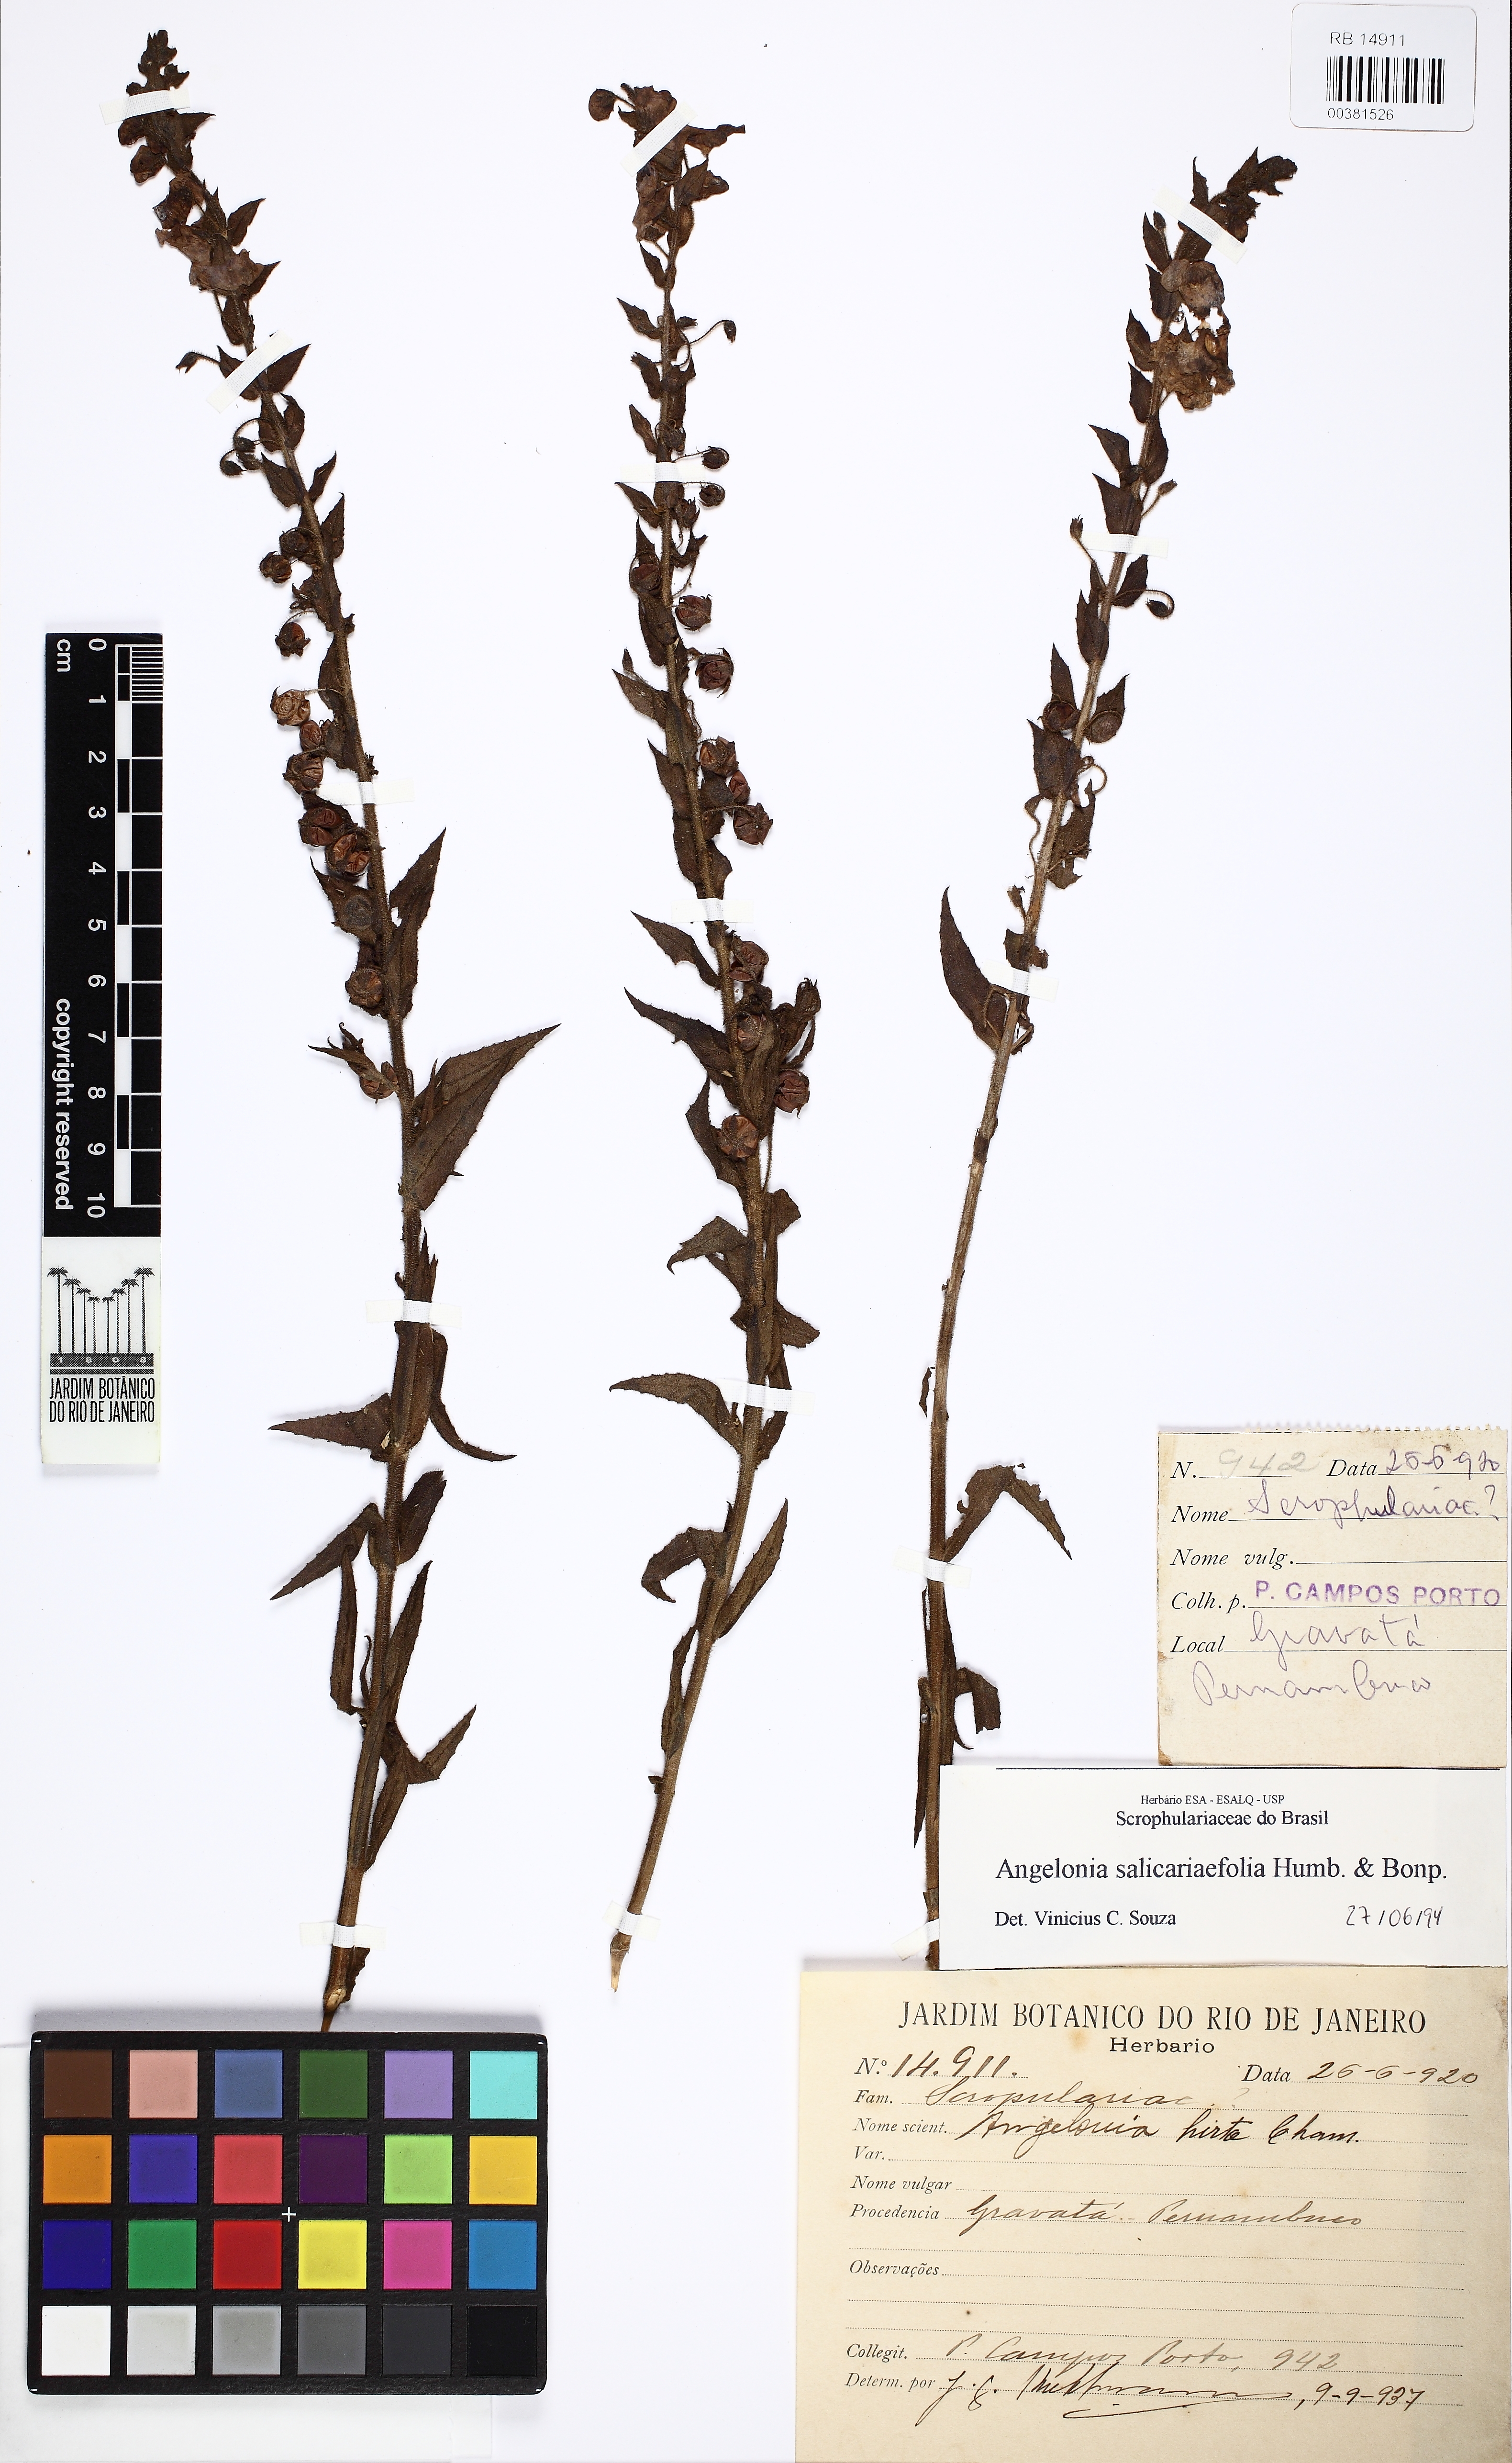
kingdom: Plantae
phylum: Tracheophyta
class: Magnoliopsida
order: Lamiales
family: Plantaginaceae
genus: Angelonia
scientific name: Angelonia salicariifolia
